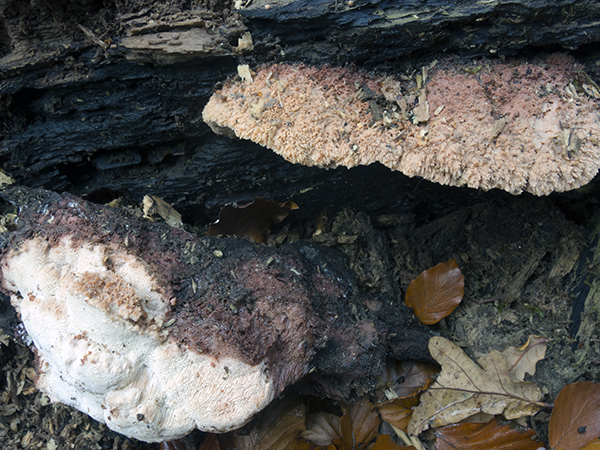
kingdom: Fungi
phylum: Basidiomycota
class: Agaricomycetes
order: Polyporales
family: Meruliaceae
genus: Pappia
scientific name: Pappia fissilis
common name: rosa fedtporesvamp
